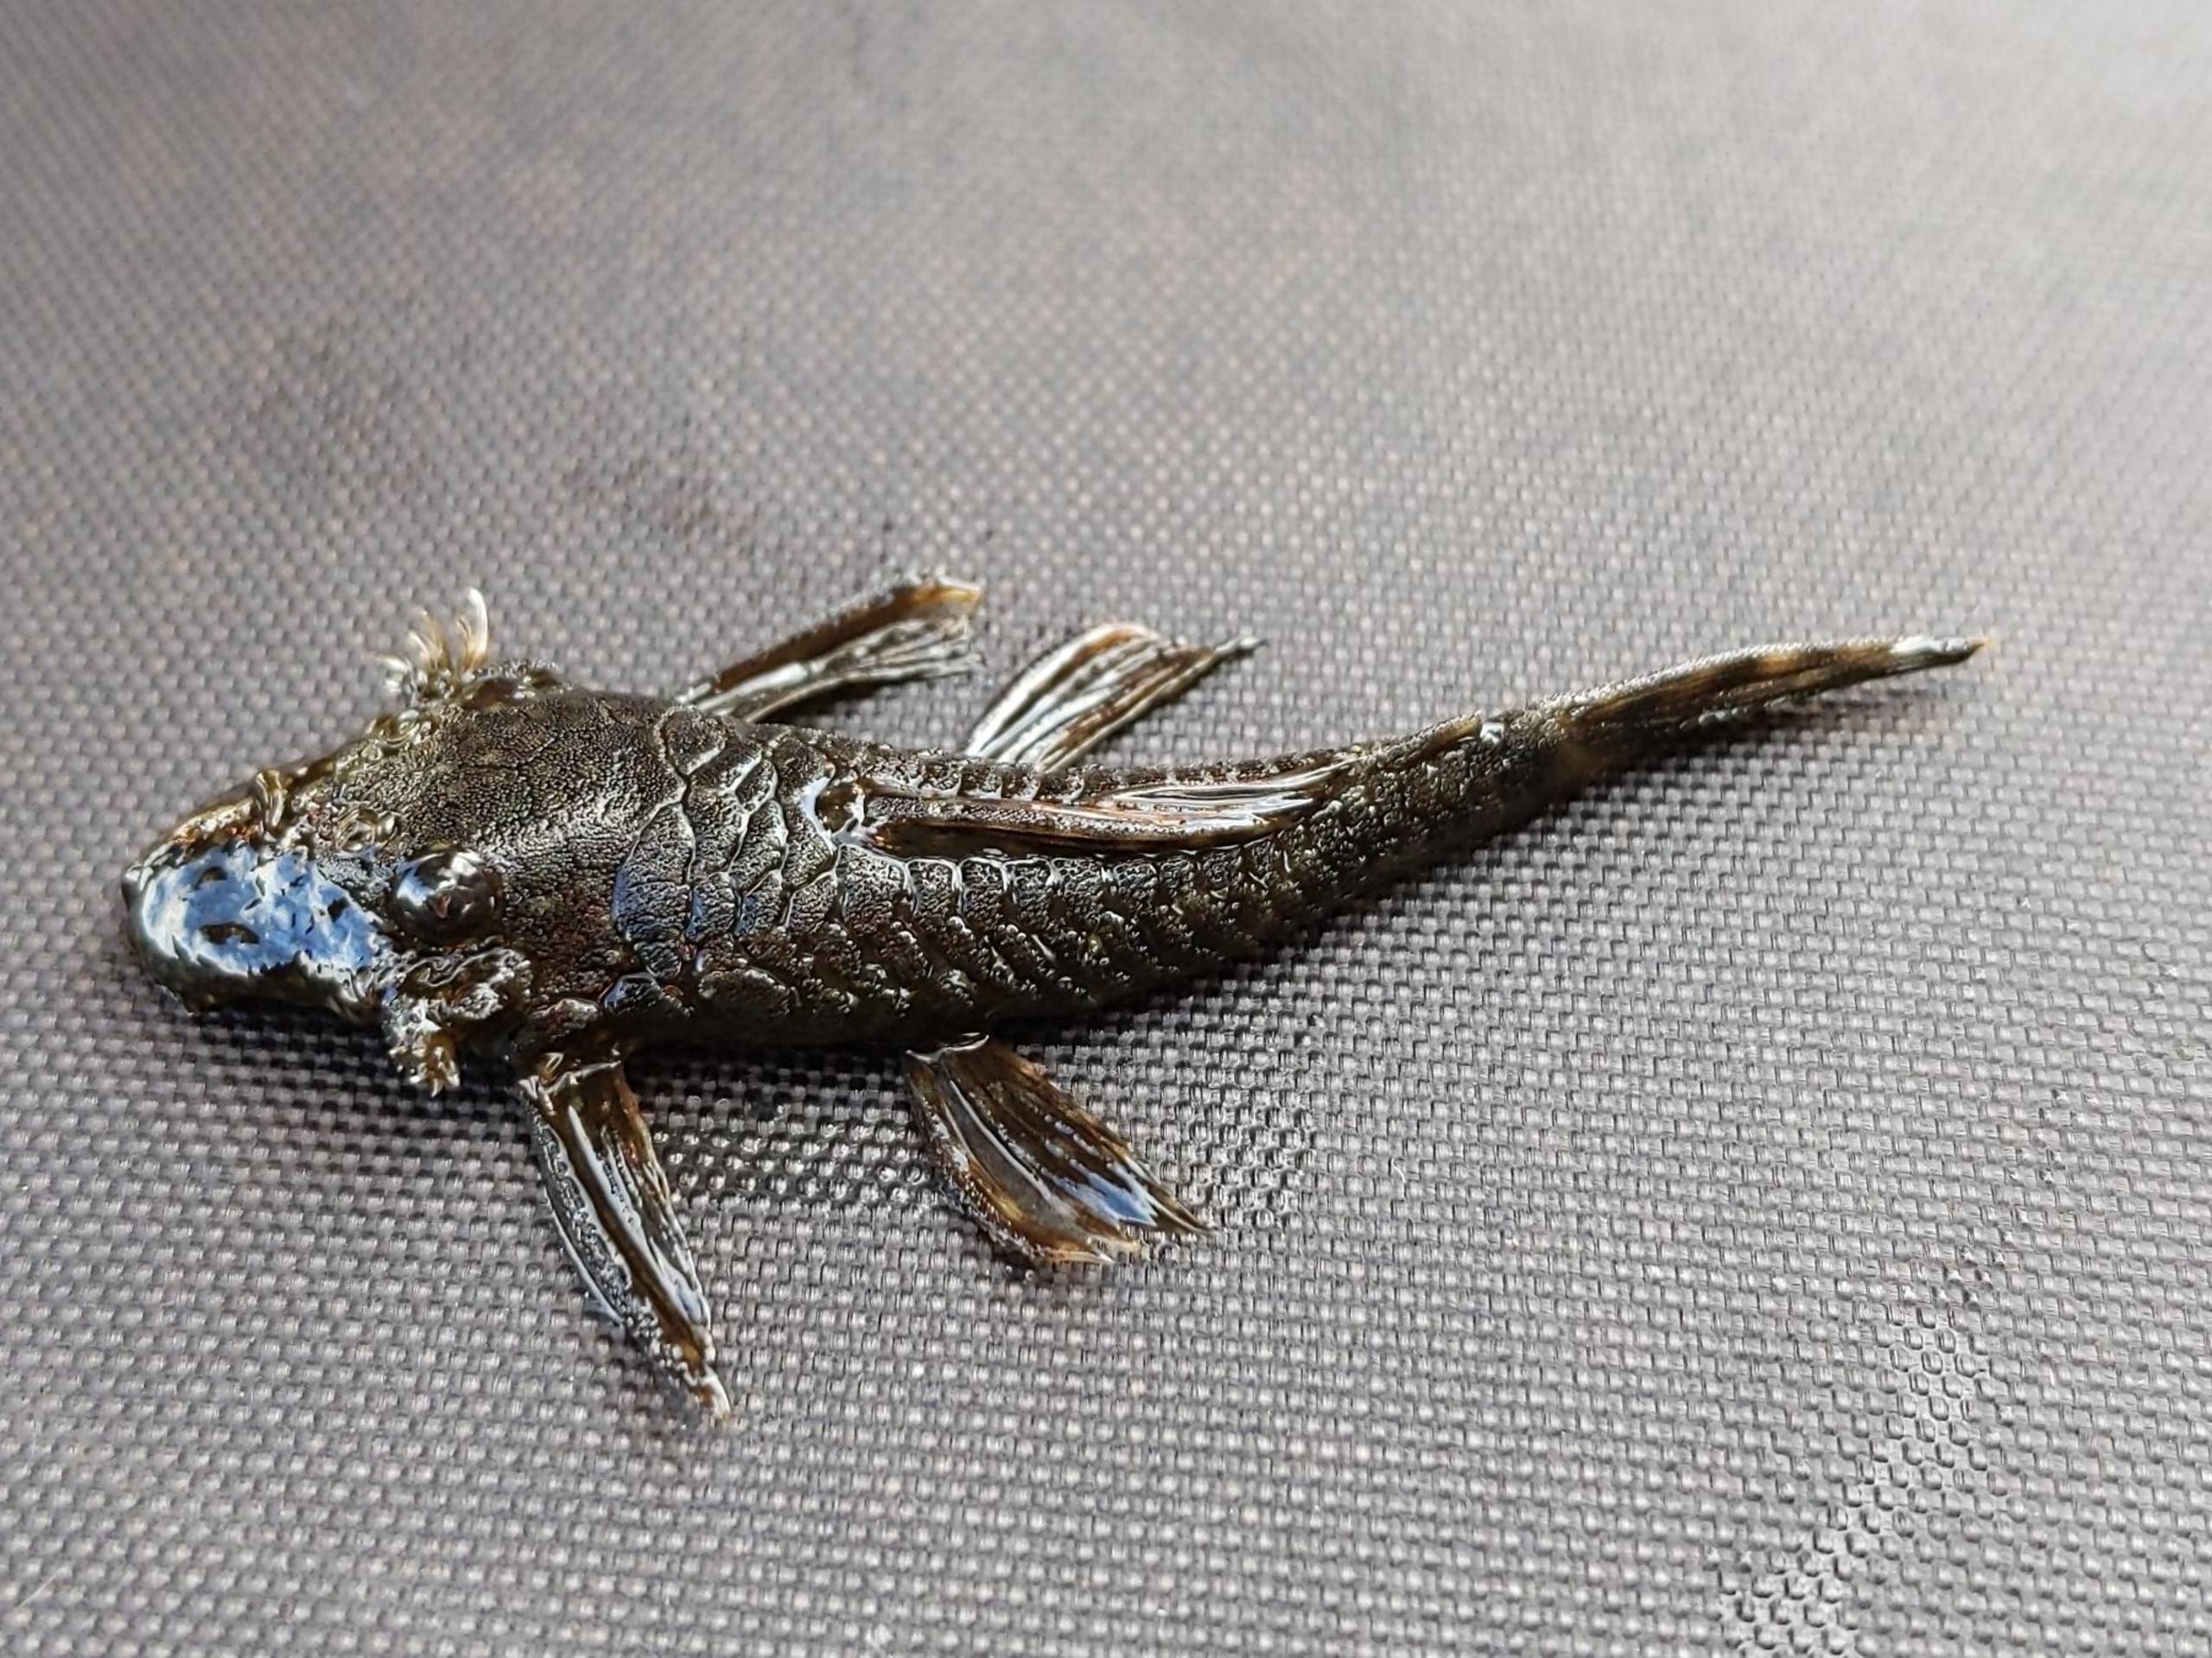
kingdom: Animalia
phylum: Chordata
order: Siluriformes
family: Loricariidae
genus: Ancistrus
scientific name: Ancistrus
